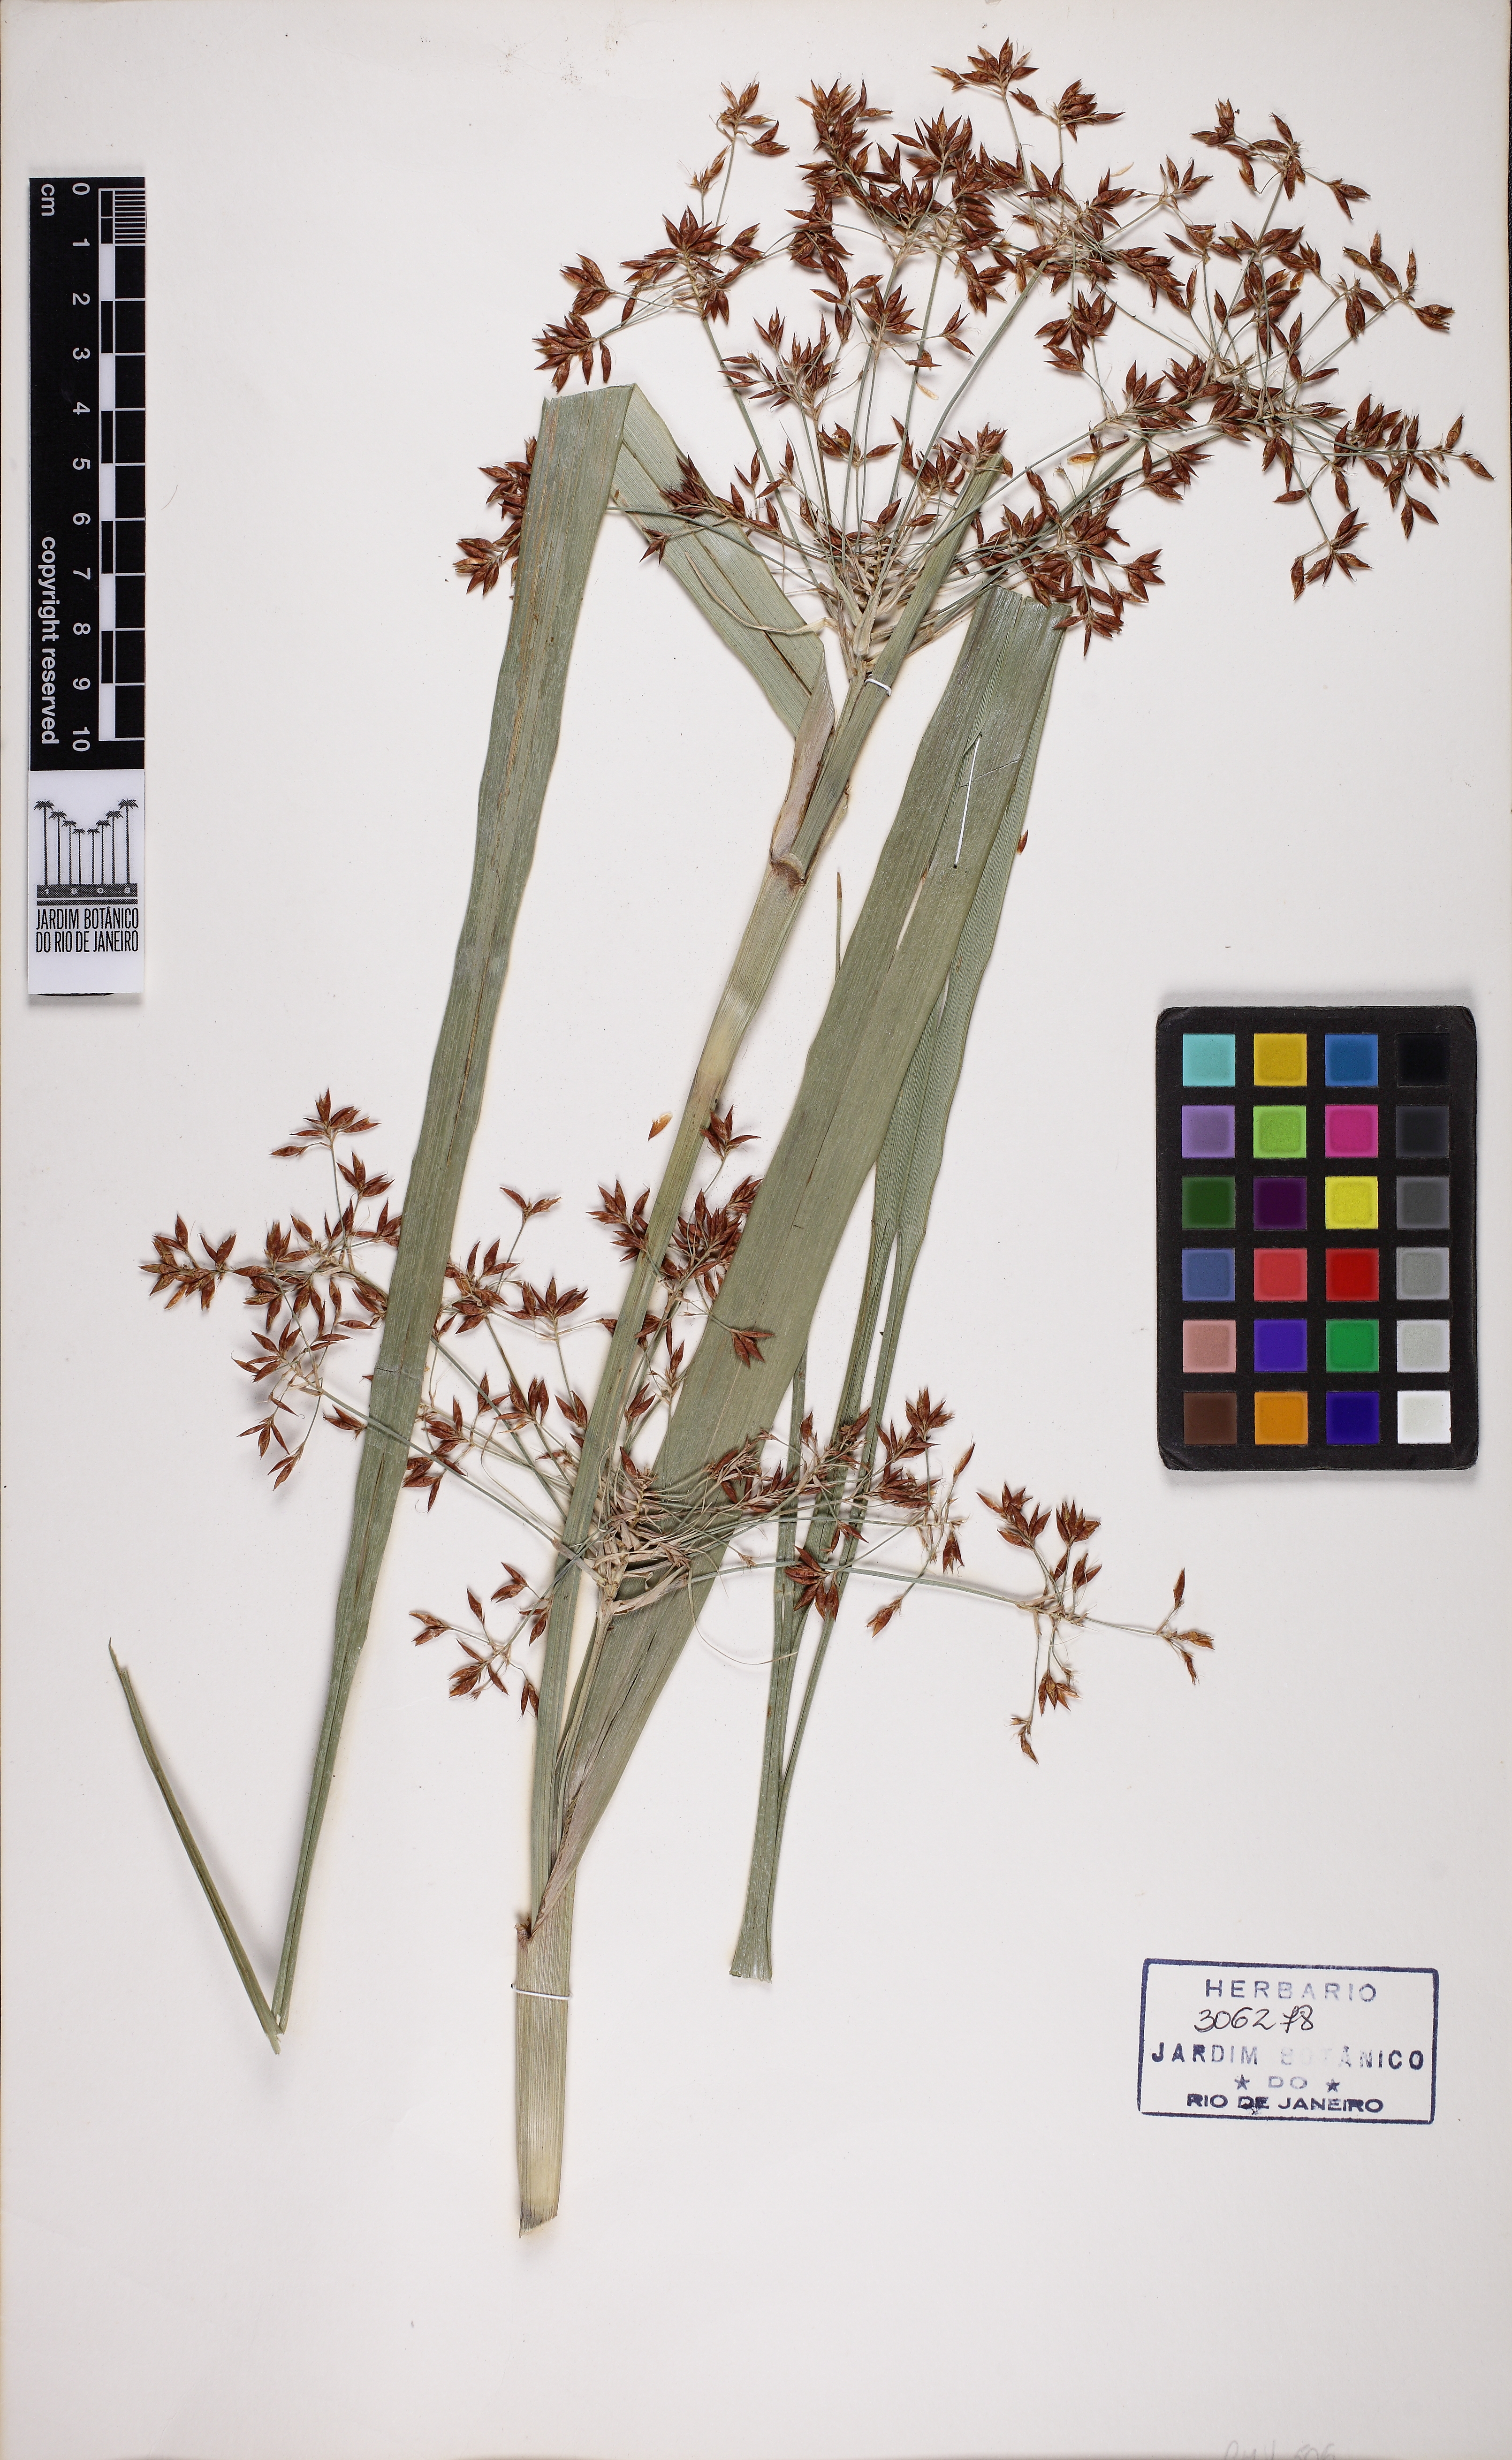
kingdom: Plantae
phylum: Tracheophyta
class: Liliopsida
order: Poales
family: Cyperaceae
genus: Rhynchospora
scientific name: Rhynchospora pedersenii
